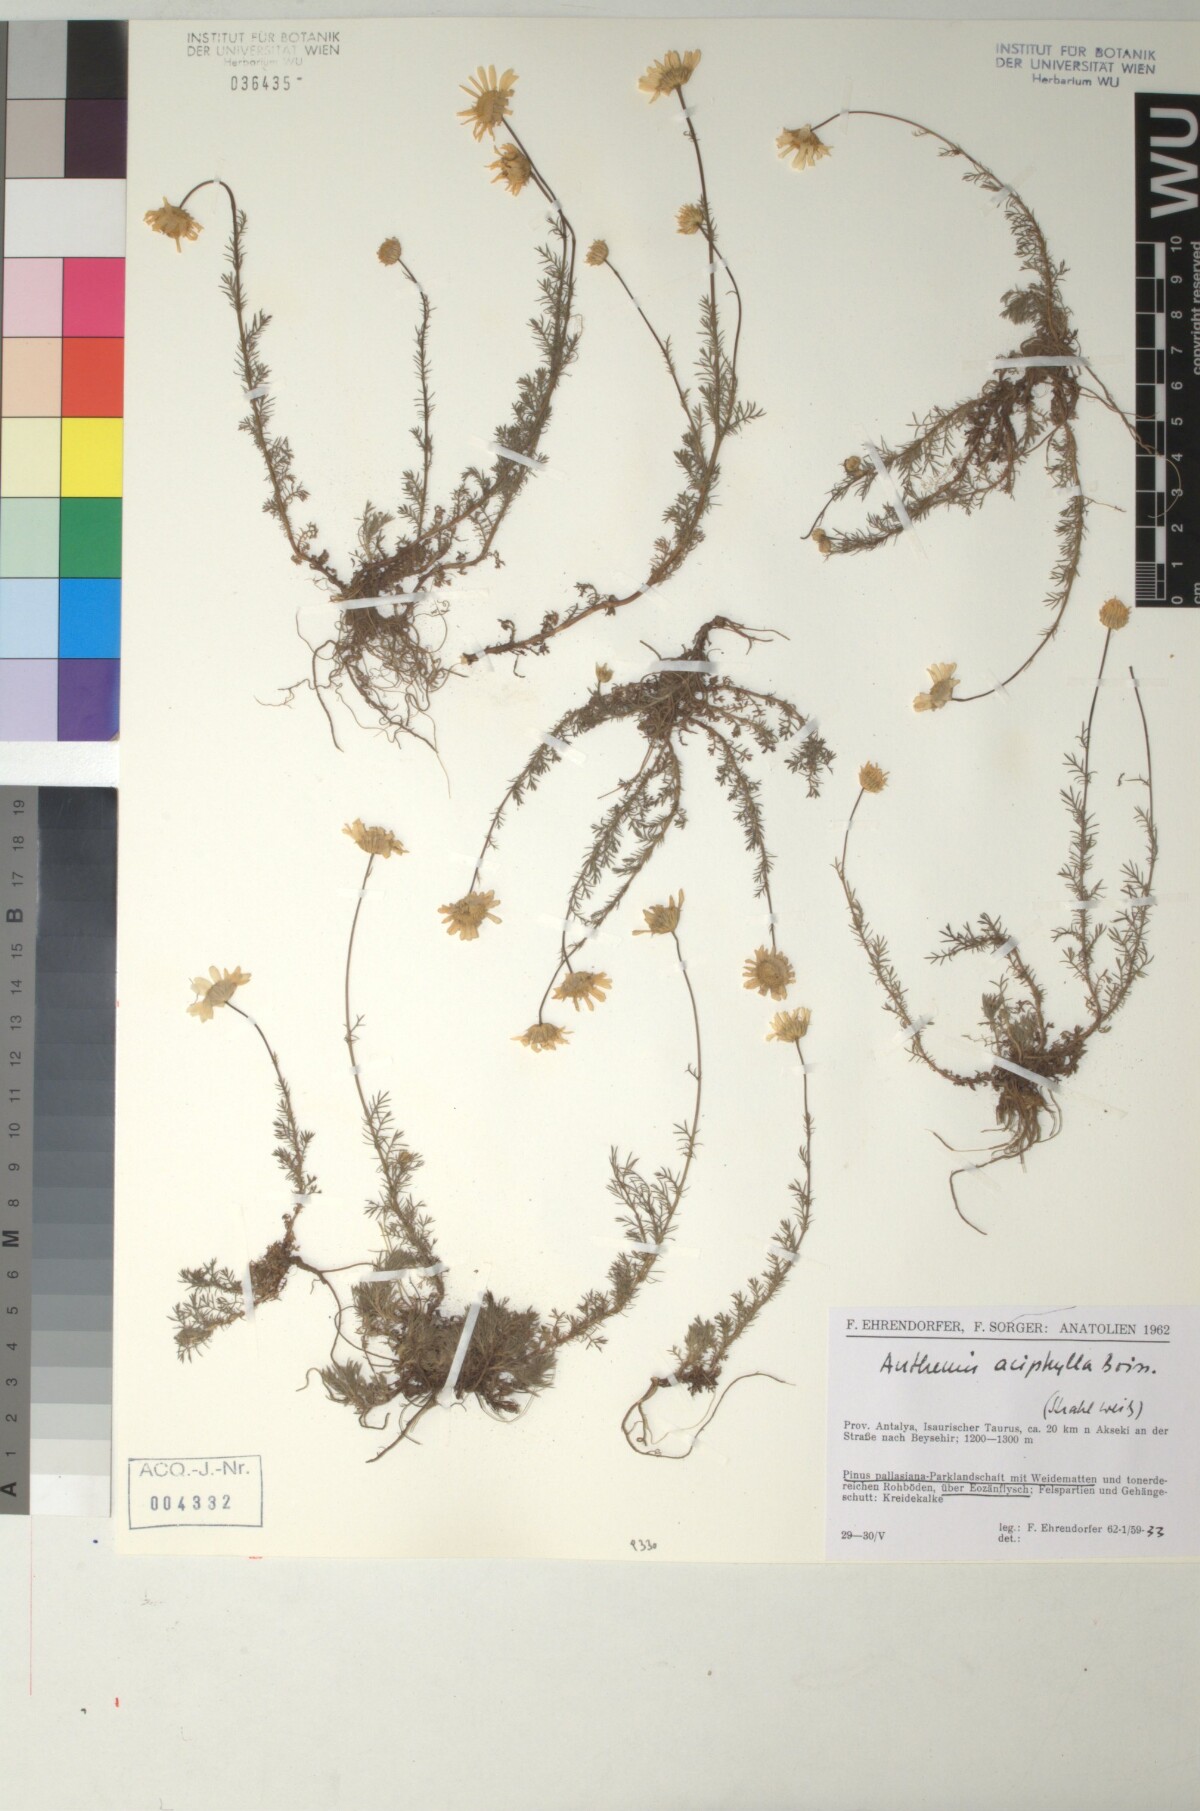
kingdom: Plantae
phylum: Tracheophyta
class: Magnoliopsida
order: Asterales
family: Asteraceae
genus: Anthemis
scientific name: Anthemis orientalis
